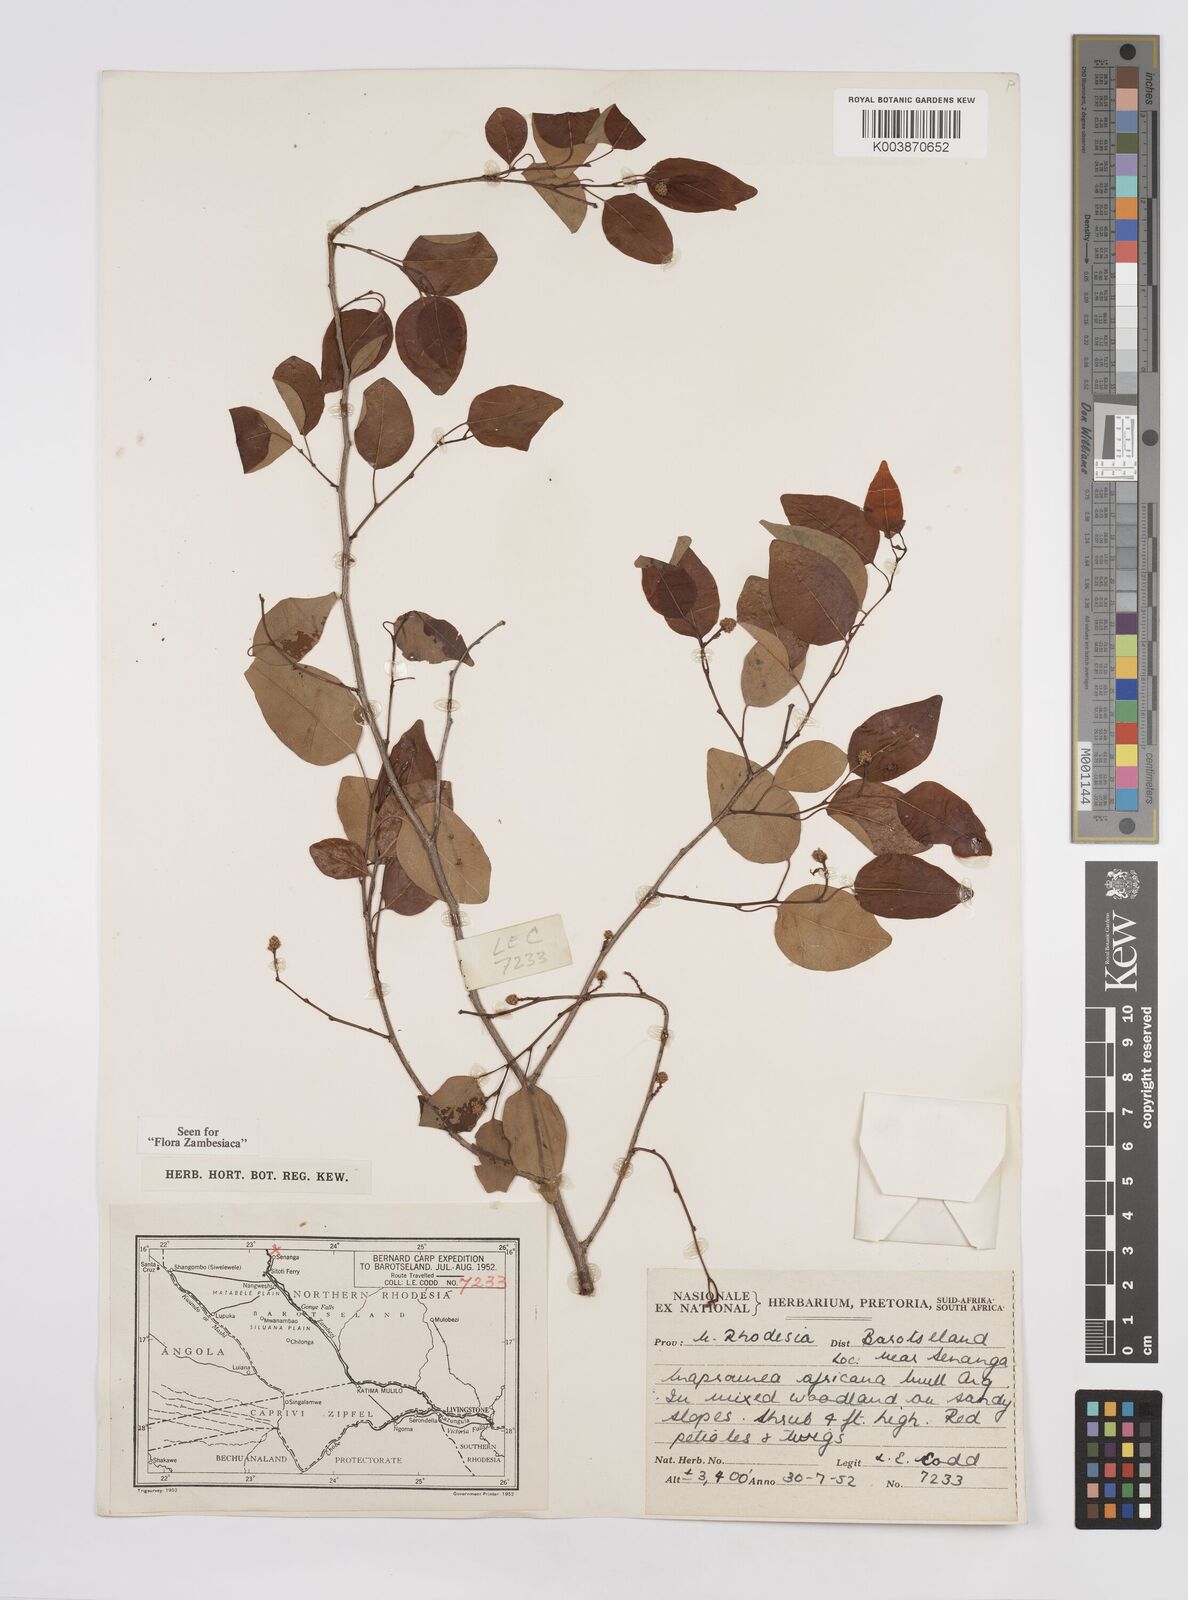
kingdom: Plantae
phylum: Tracheophyta
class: Magnoliopsida
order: Malpighiales
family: Euphorbiaceae
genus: Maprounea
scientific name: Maprounea africana
